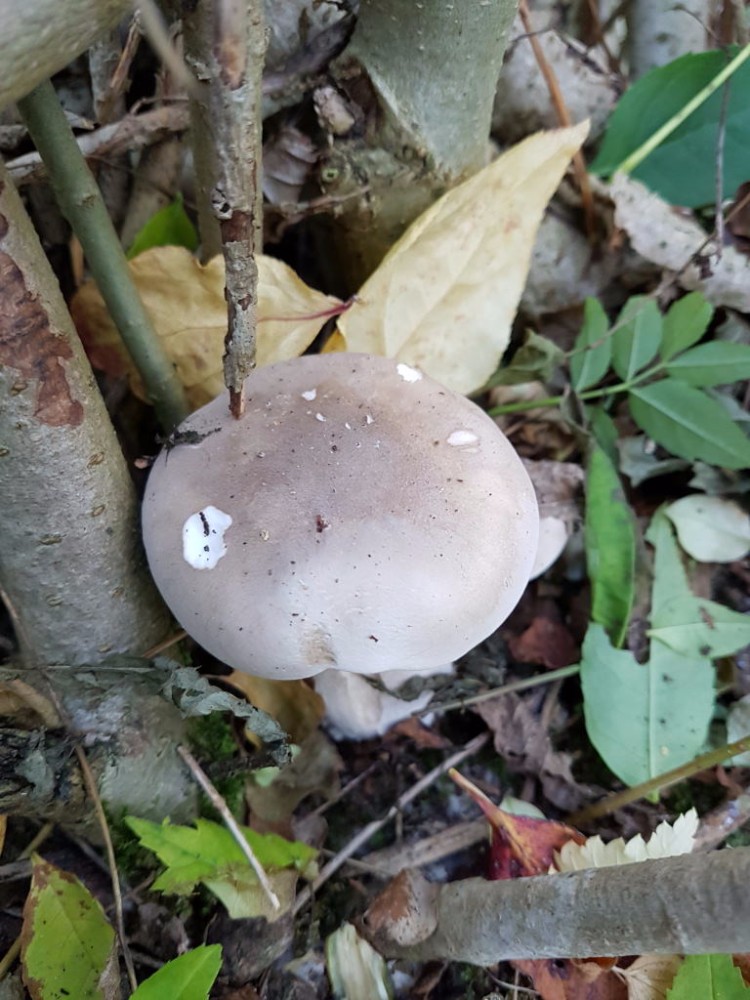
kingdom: Fungi
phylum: Basidiomycota
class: Agaricomycetes
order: Agaricales
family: Tricholomataceae
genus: Clitocybe
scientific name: Clitocybe nebularis
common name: tåge-tragthat
